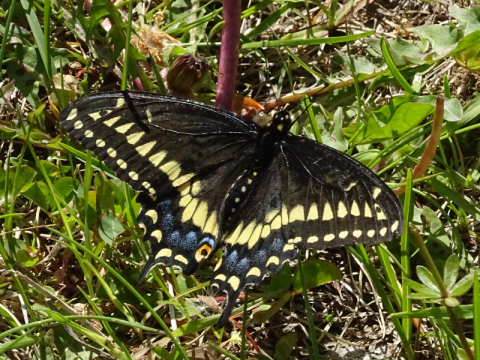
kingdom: Animalia
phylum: Arthropoda
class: Insecta
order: Lepidoptera
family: Papilionidae
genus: Papilio
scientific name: Papilio polyxenes
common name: Black Swallowtail
